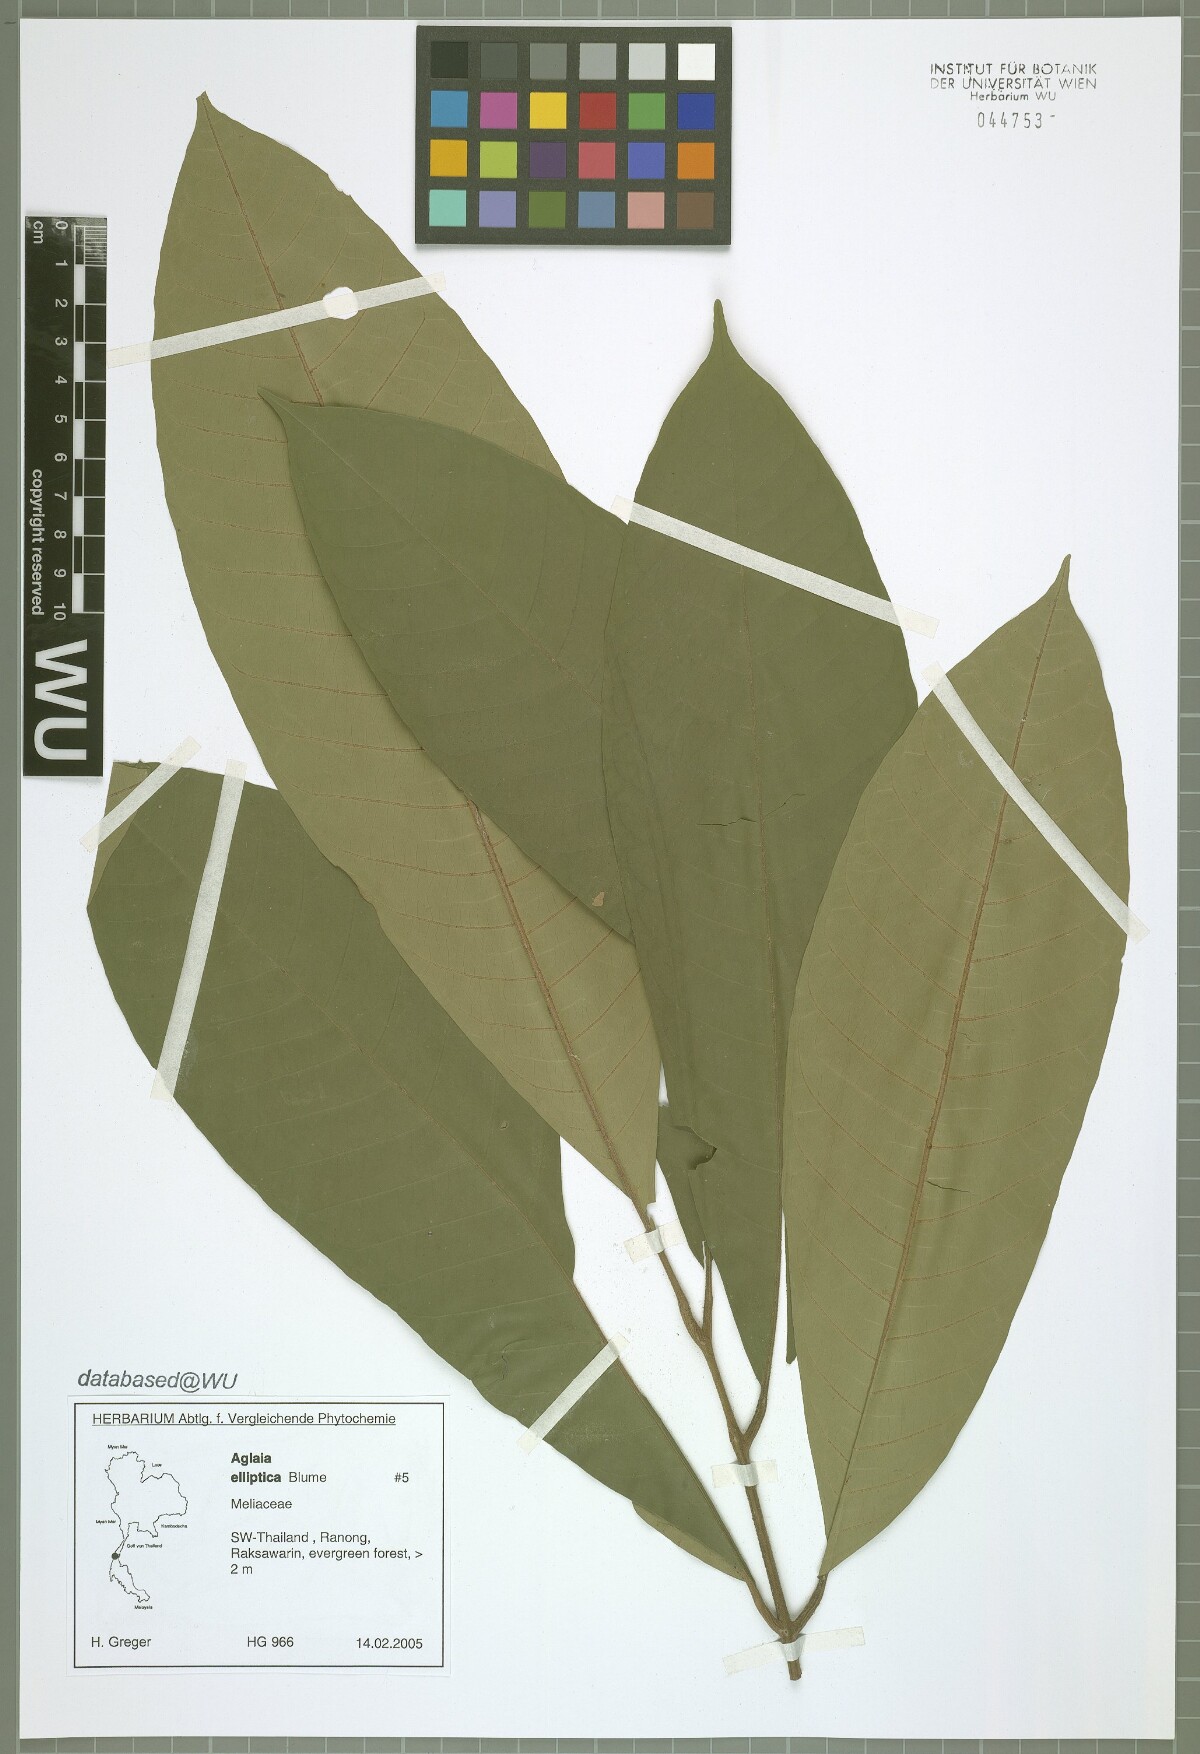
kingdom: Plantae
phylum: Tracheophyta
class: Magnoliopsida
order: Sapindales
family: Meliaceae
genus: Aglaia
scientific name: Aglaia elliptica
